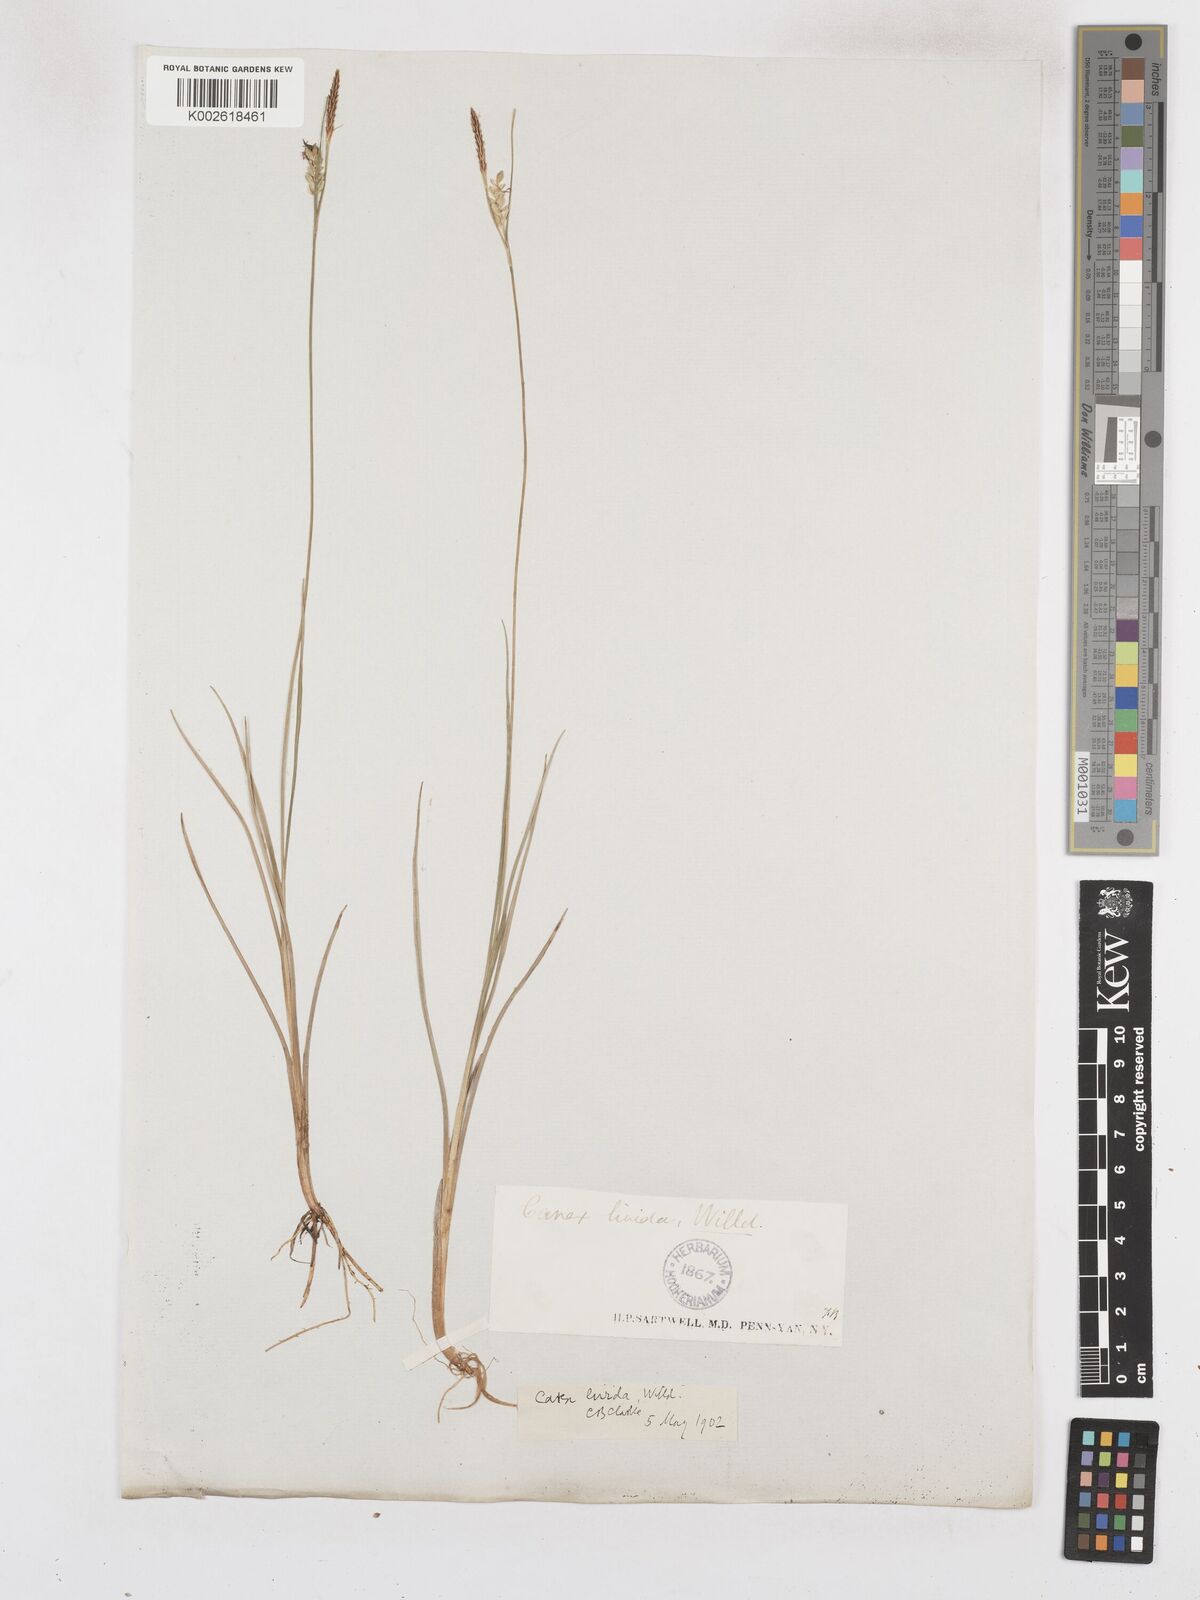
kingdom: Plantae
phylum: Tracheophyta
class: Liliopsida
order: Poales
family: Cyperaceae
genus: Carex
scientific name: Carex livida
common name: Livid sedge
